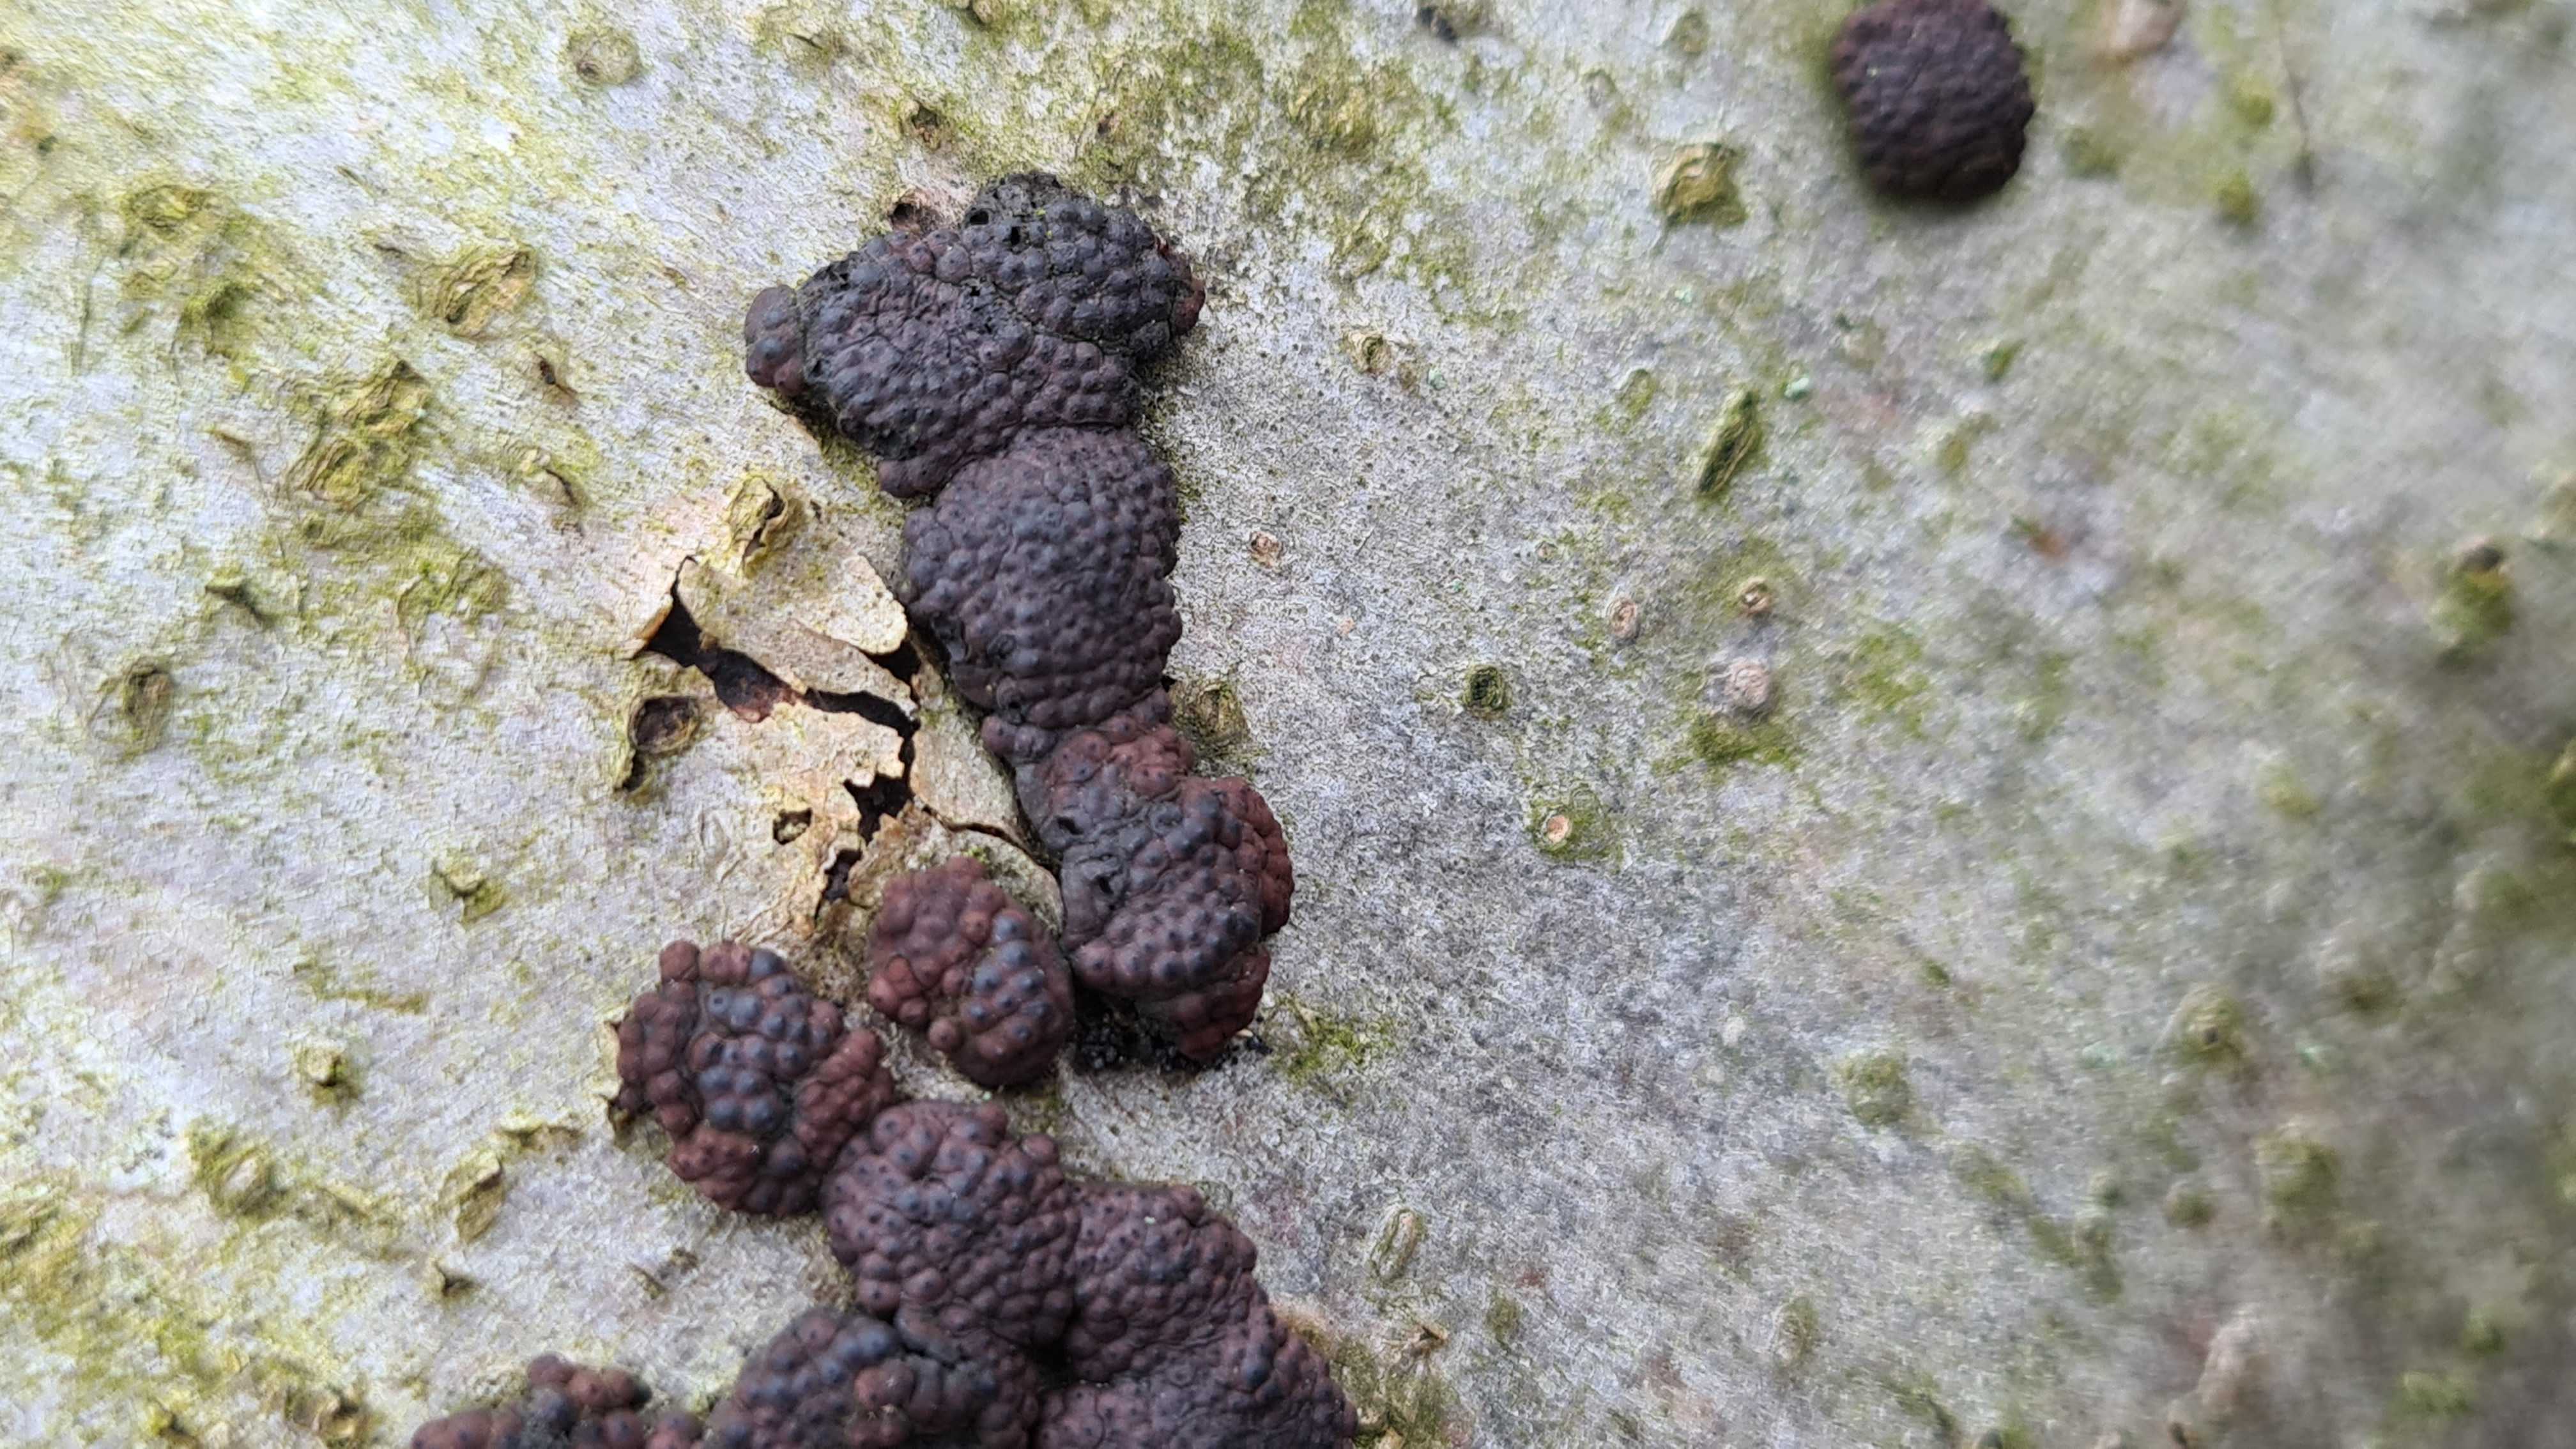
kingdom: Fungi
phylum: Ascomycota
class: Sordariomycetes
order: Xylariales
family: Hypoxylaceae
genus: Jackrogersella
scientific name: Jackrogersella
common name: kulbær
